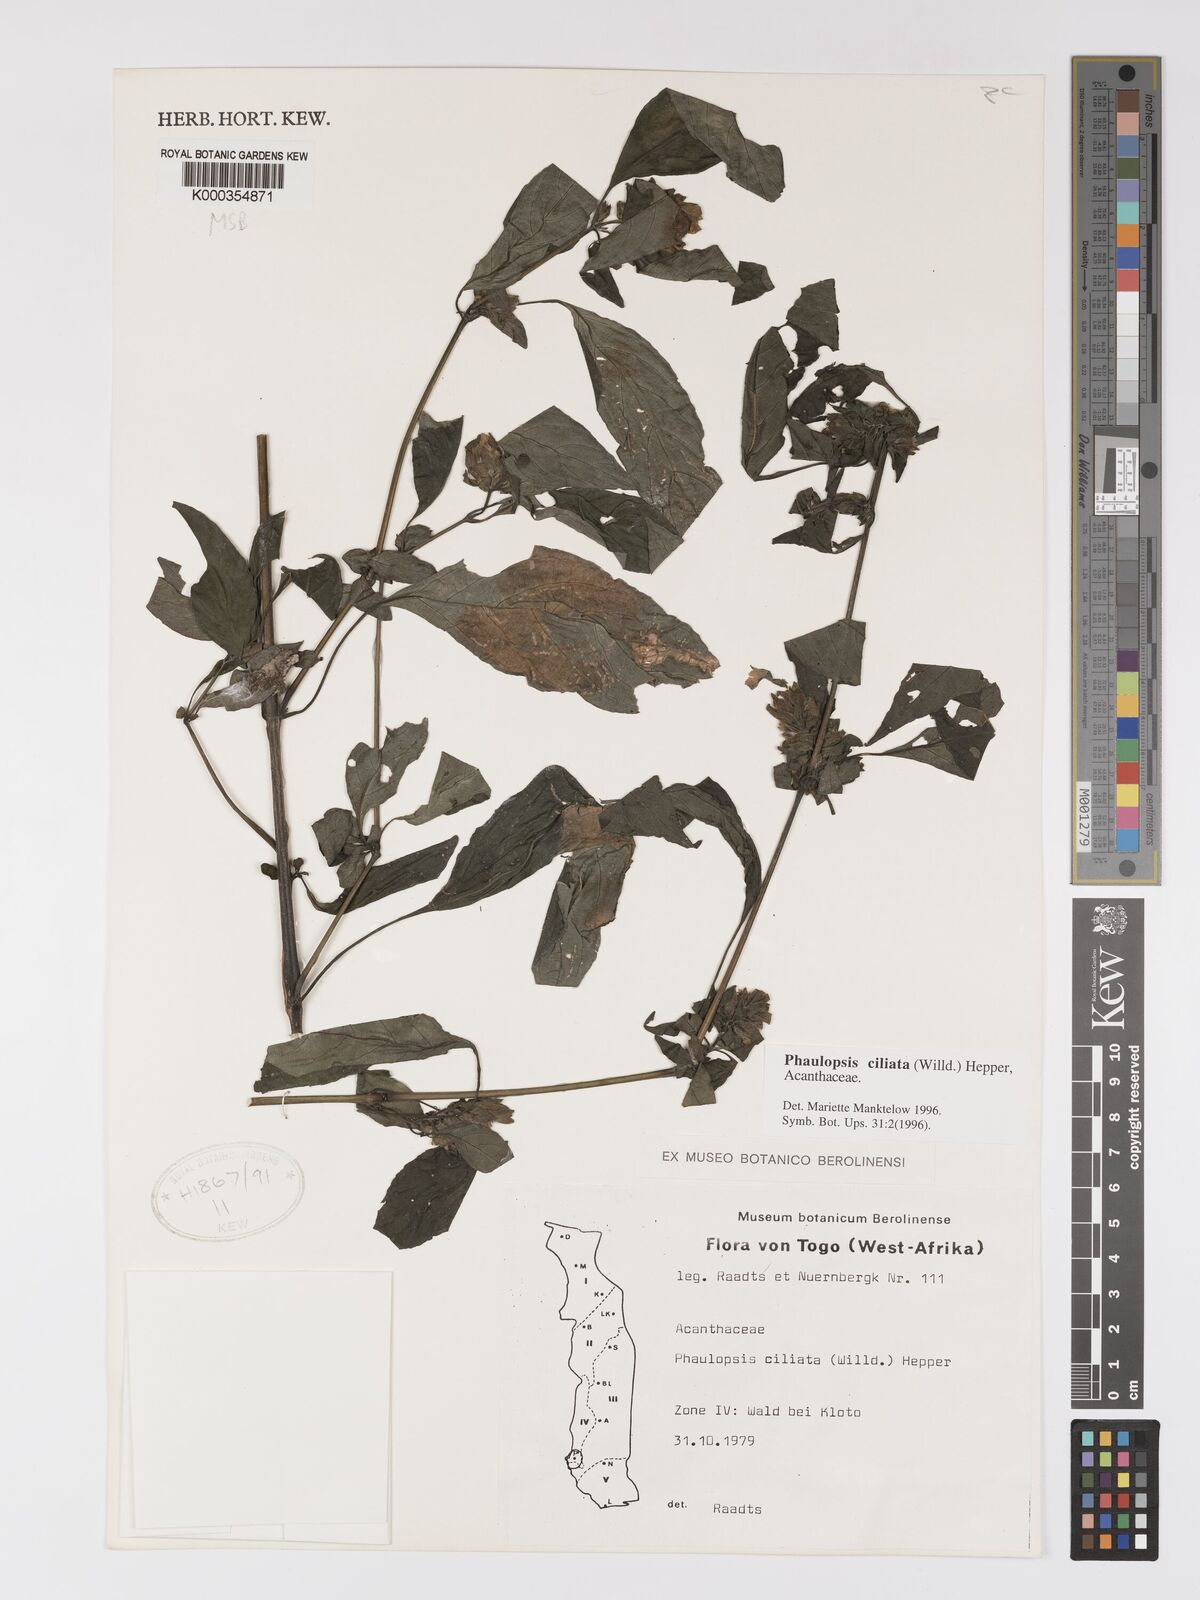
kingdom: Plantae
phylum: Tracheophyta
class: Magnoliopsida
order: Lamiales
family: Acanthaceae
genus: Phaulopsis
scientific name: Phaulopsis ciliata
